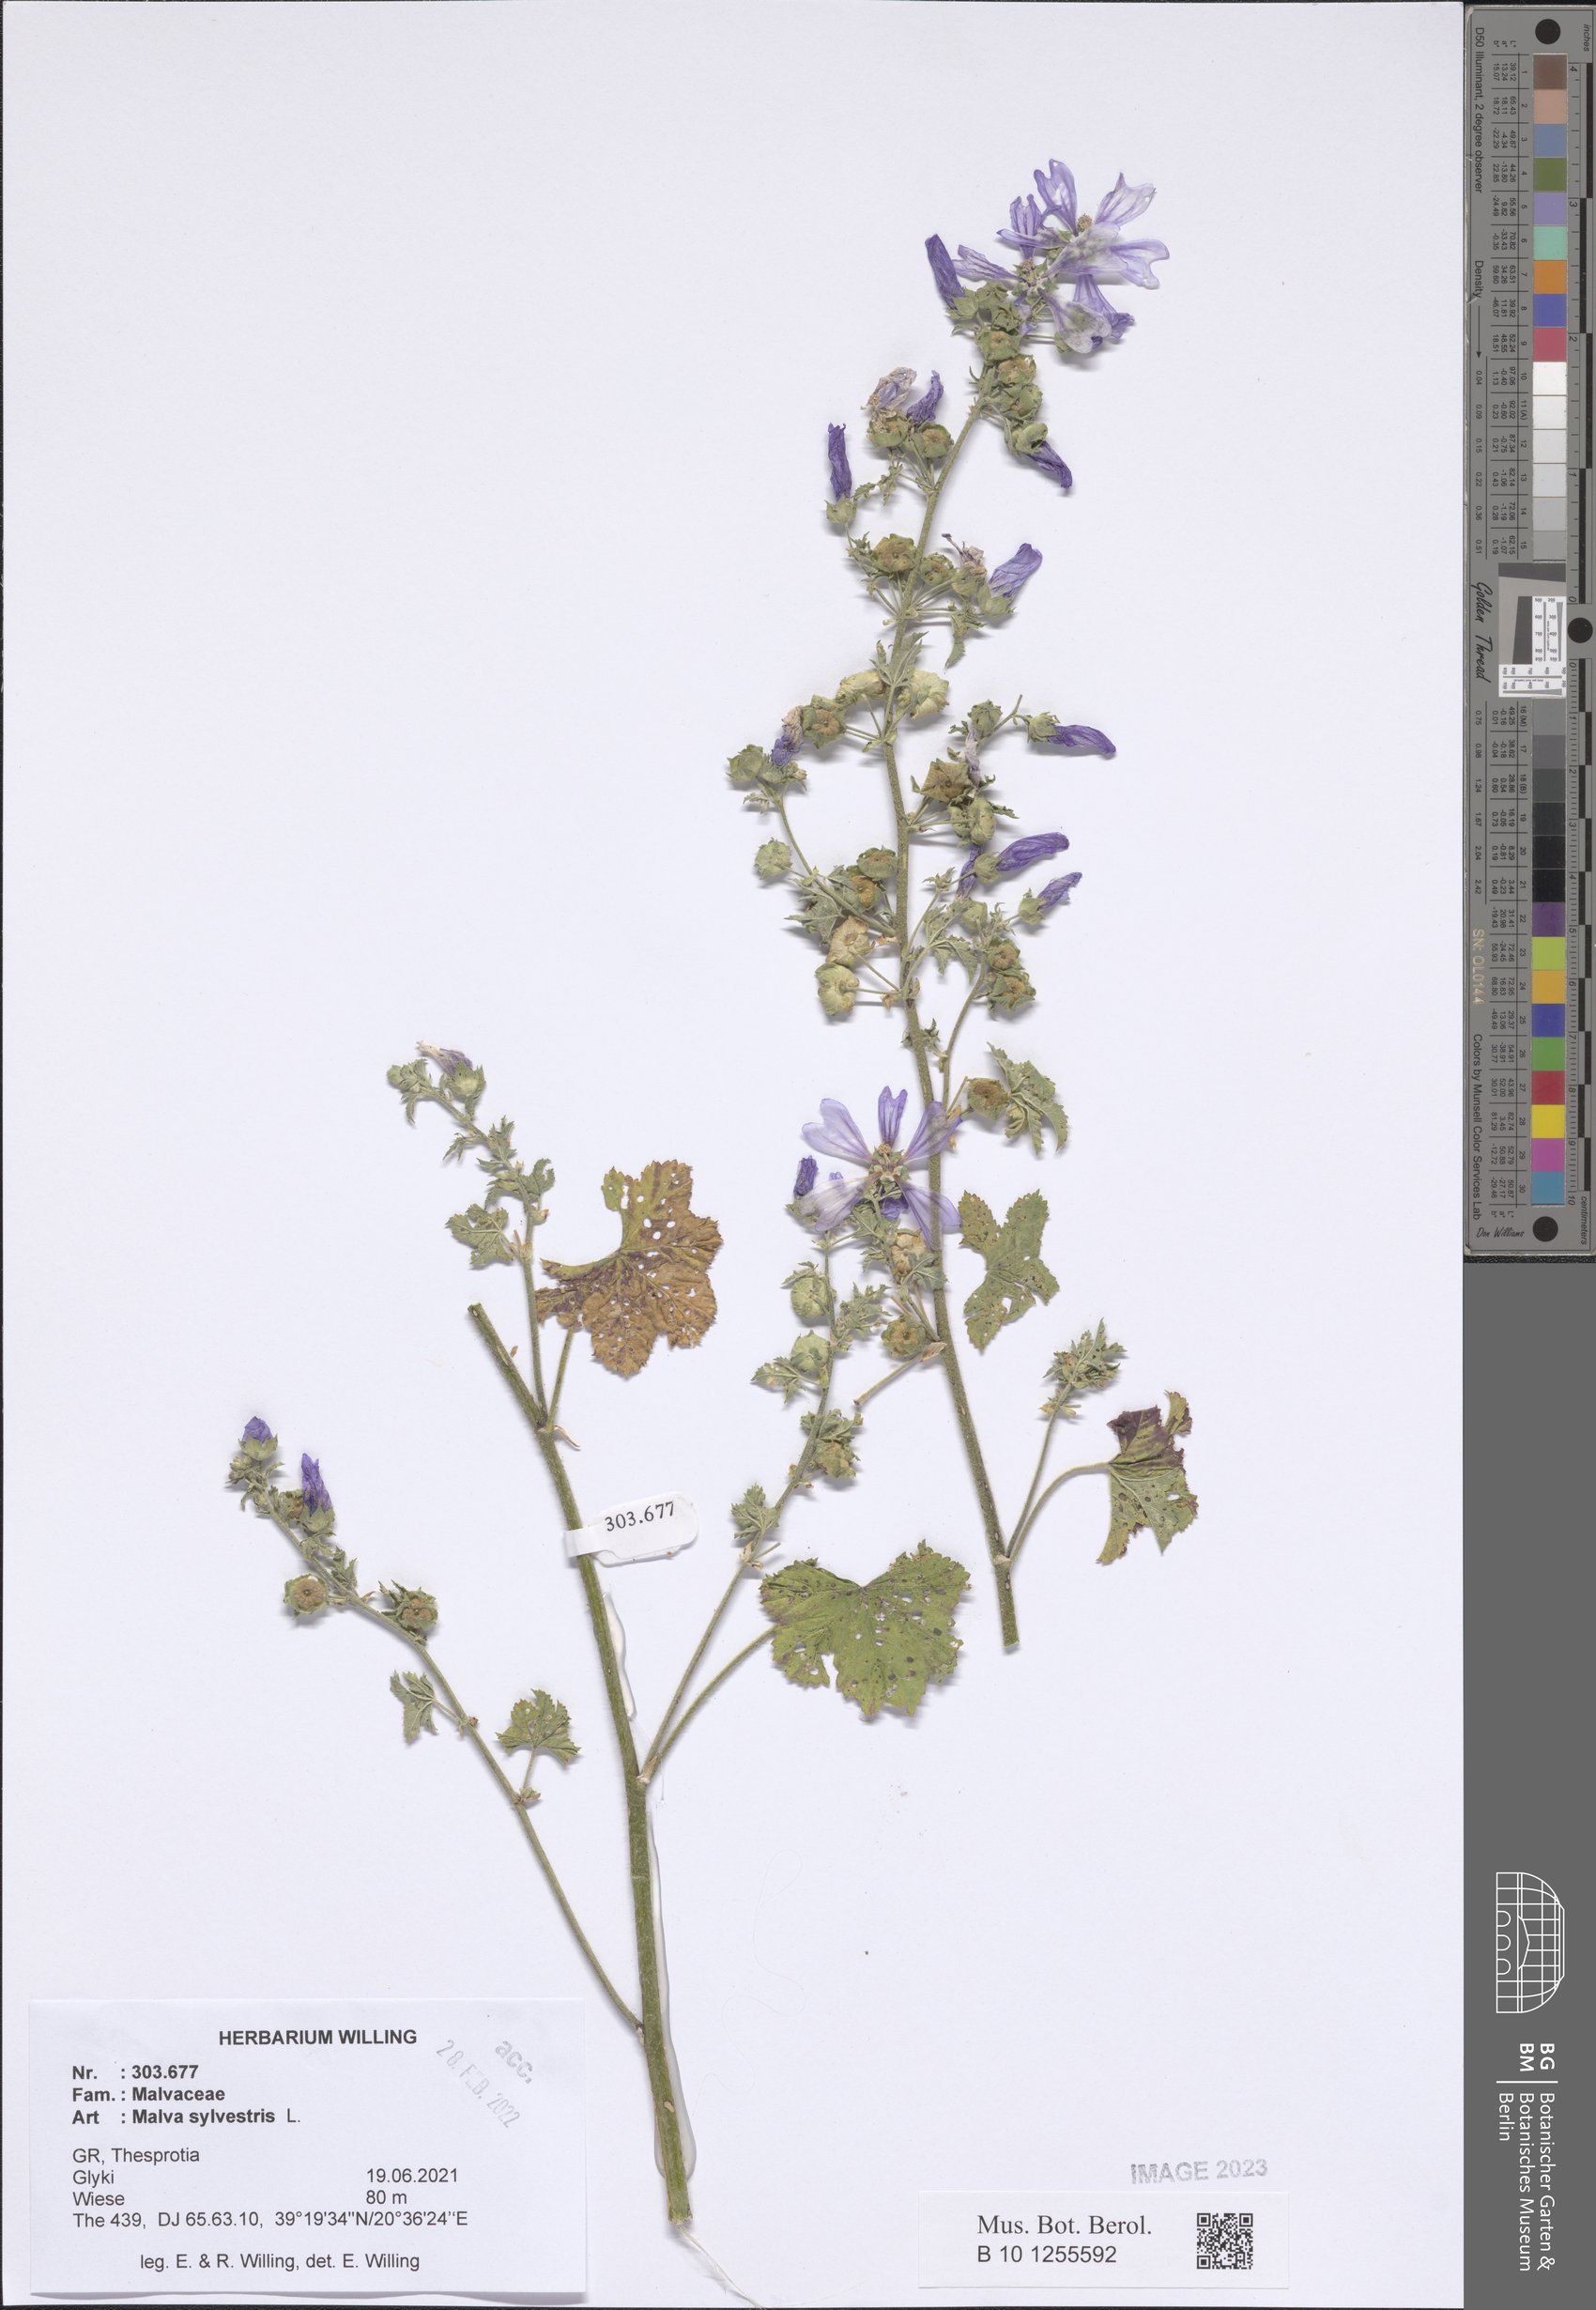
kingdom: Plantae
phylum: Tracheophyta
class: Magnoliopsida
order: Malvales
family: Malvaceae
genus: Malva
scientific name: Malva sylvestris
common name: Common mallow
